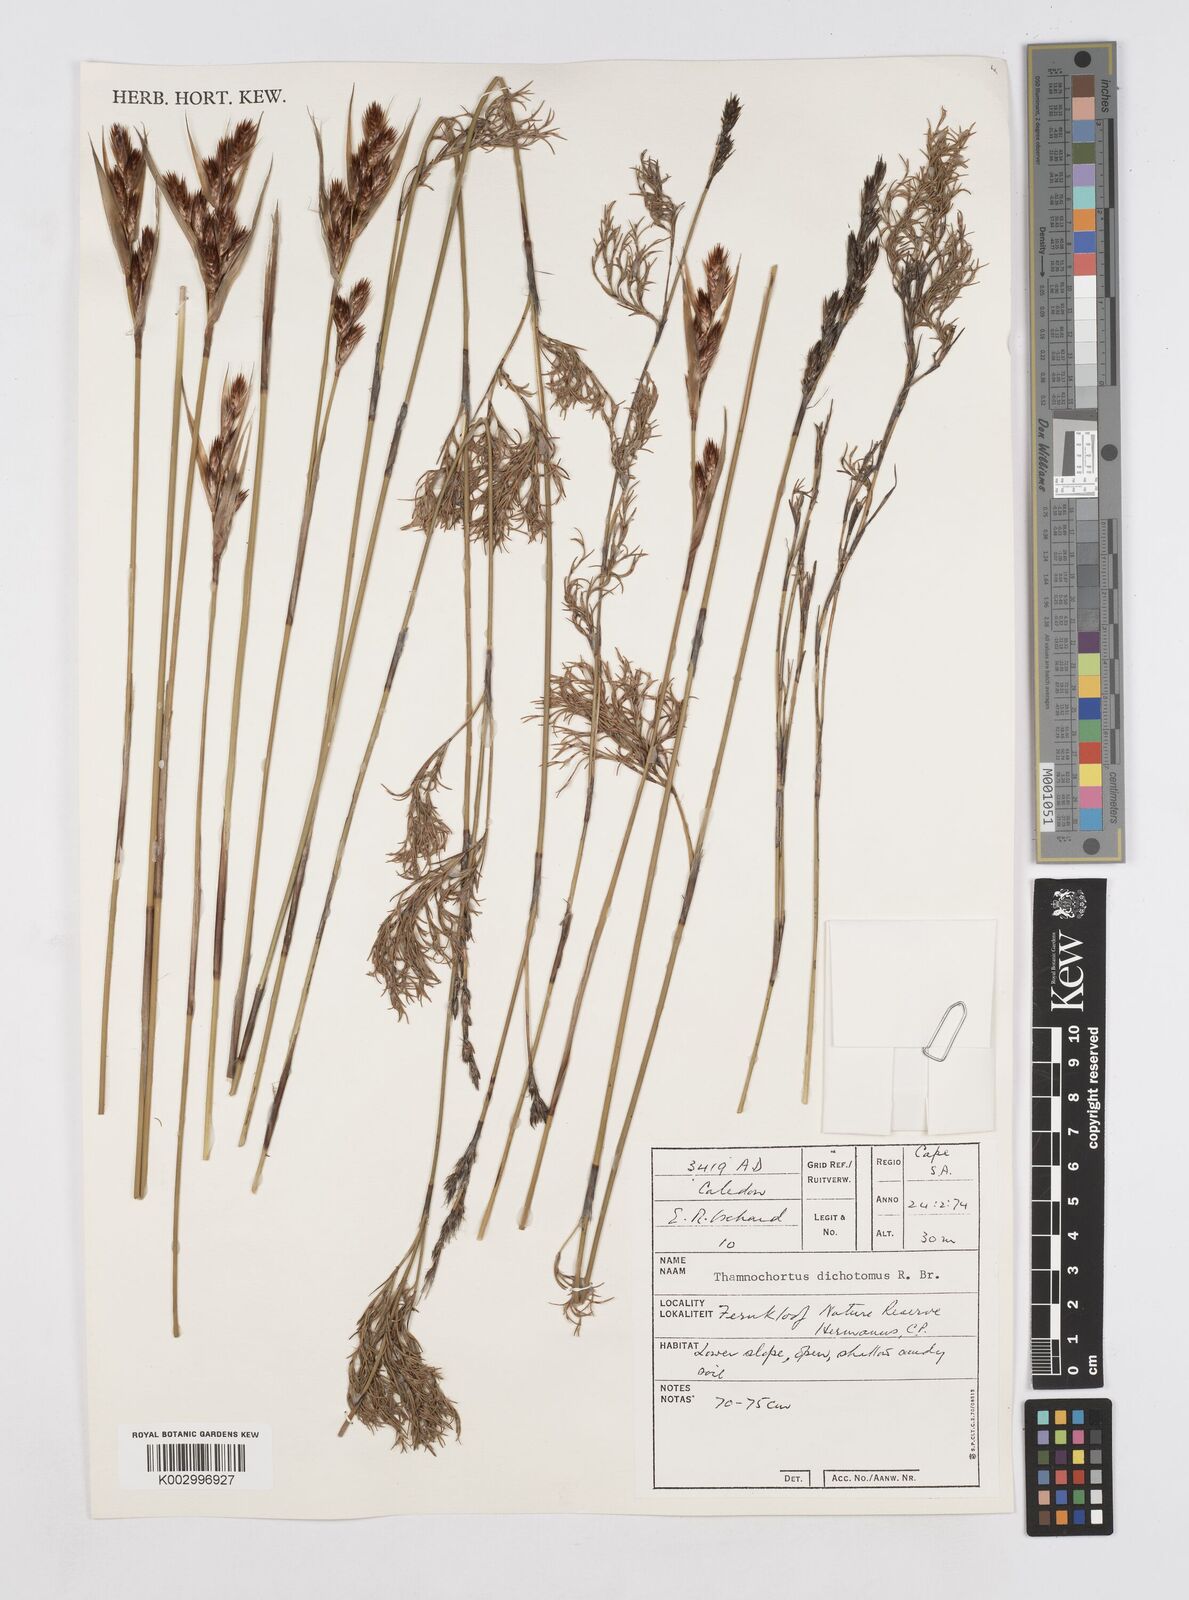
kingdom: Plantae
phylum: Tracheophyta
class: Liliopsida
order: Poales
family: Restionaceae
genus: Thamnochortus
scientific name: Thamnochortus lucens
